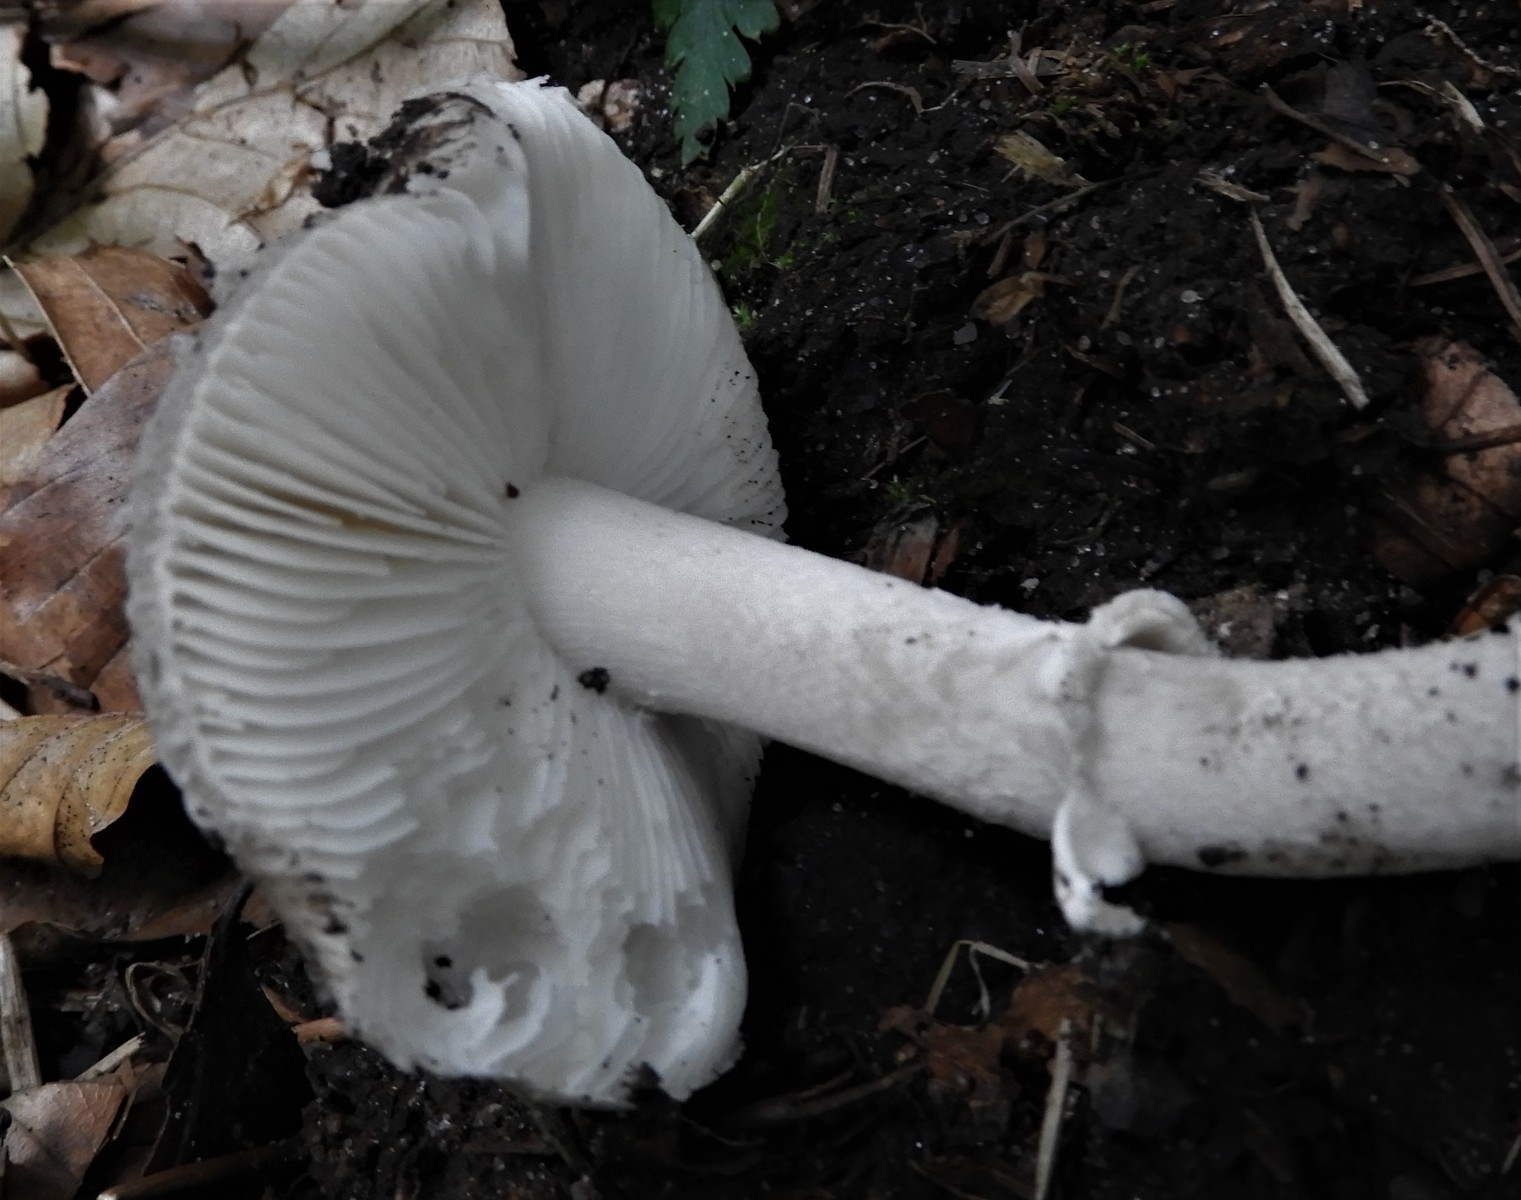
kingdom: Fungi
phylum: Basidiomycota
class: Agaricomycetes
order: Agaricales
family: Amanitaceae
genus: Amanita
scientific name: Amanita
